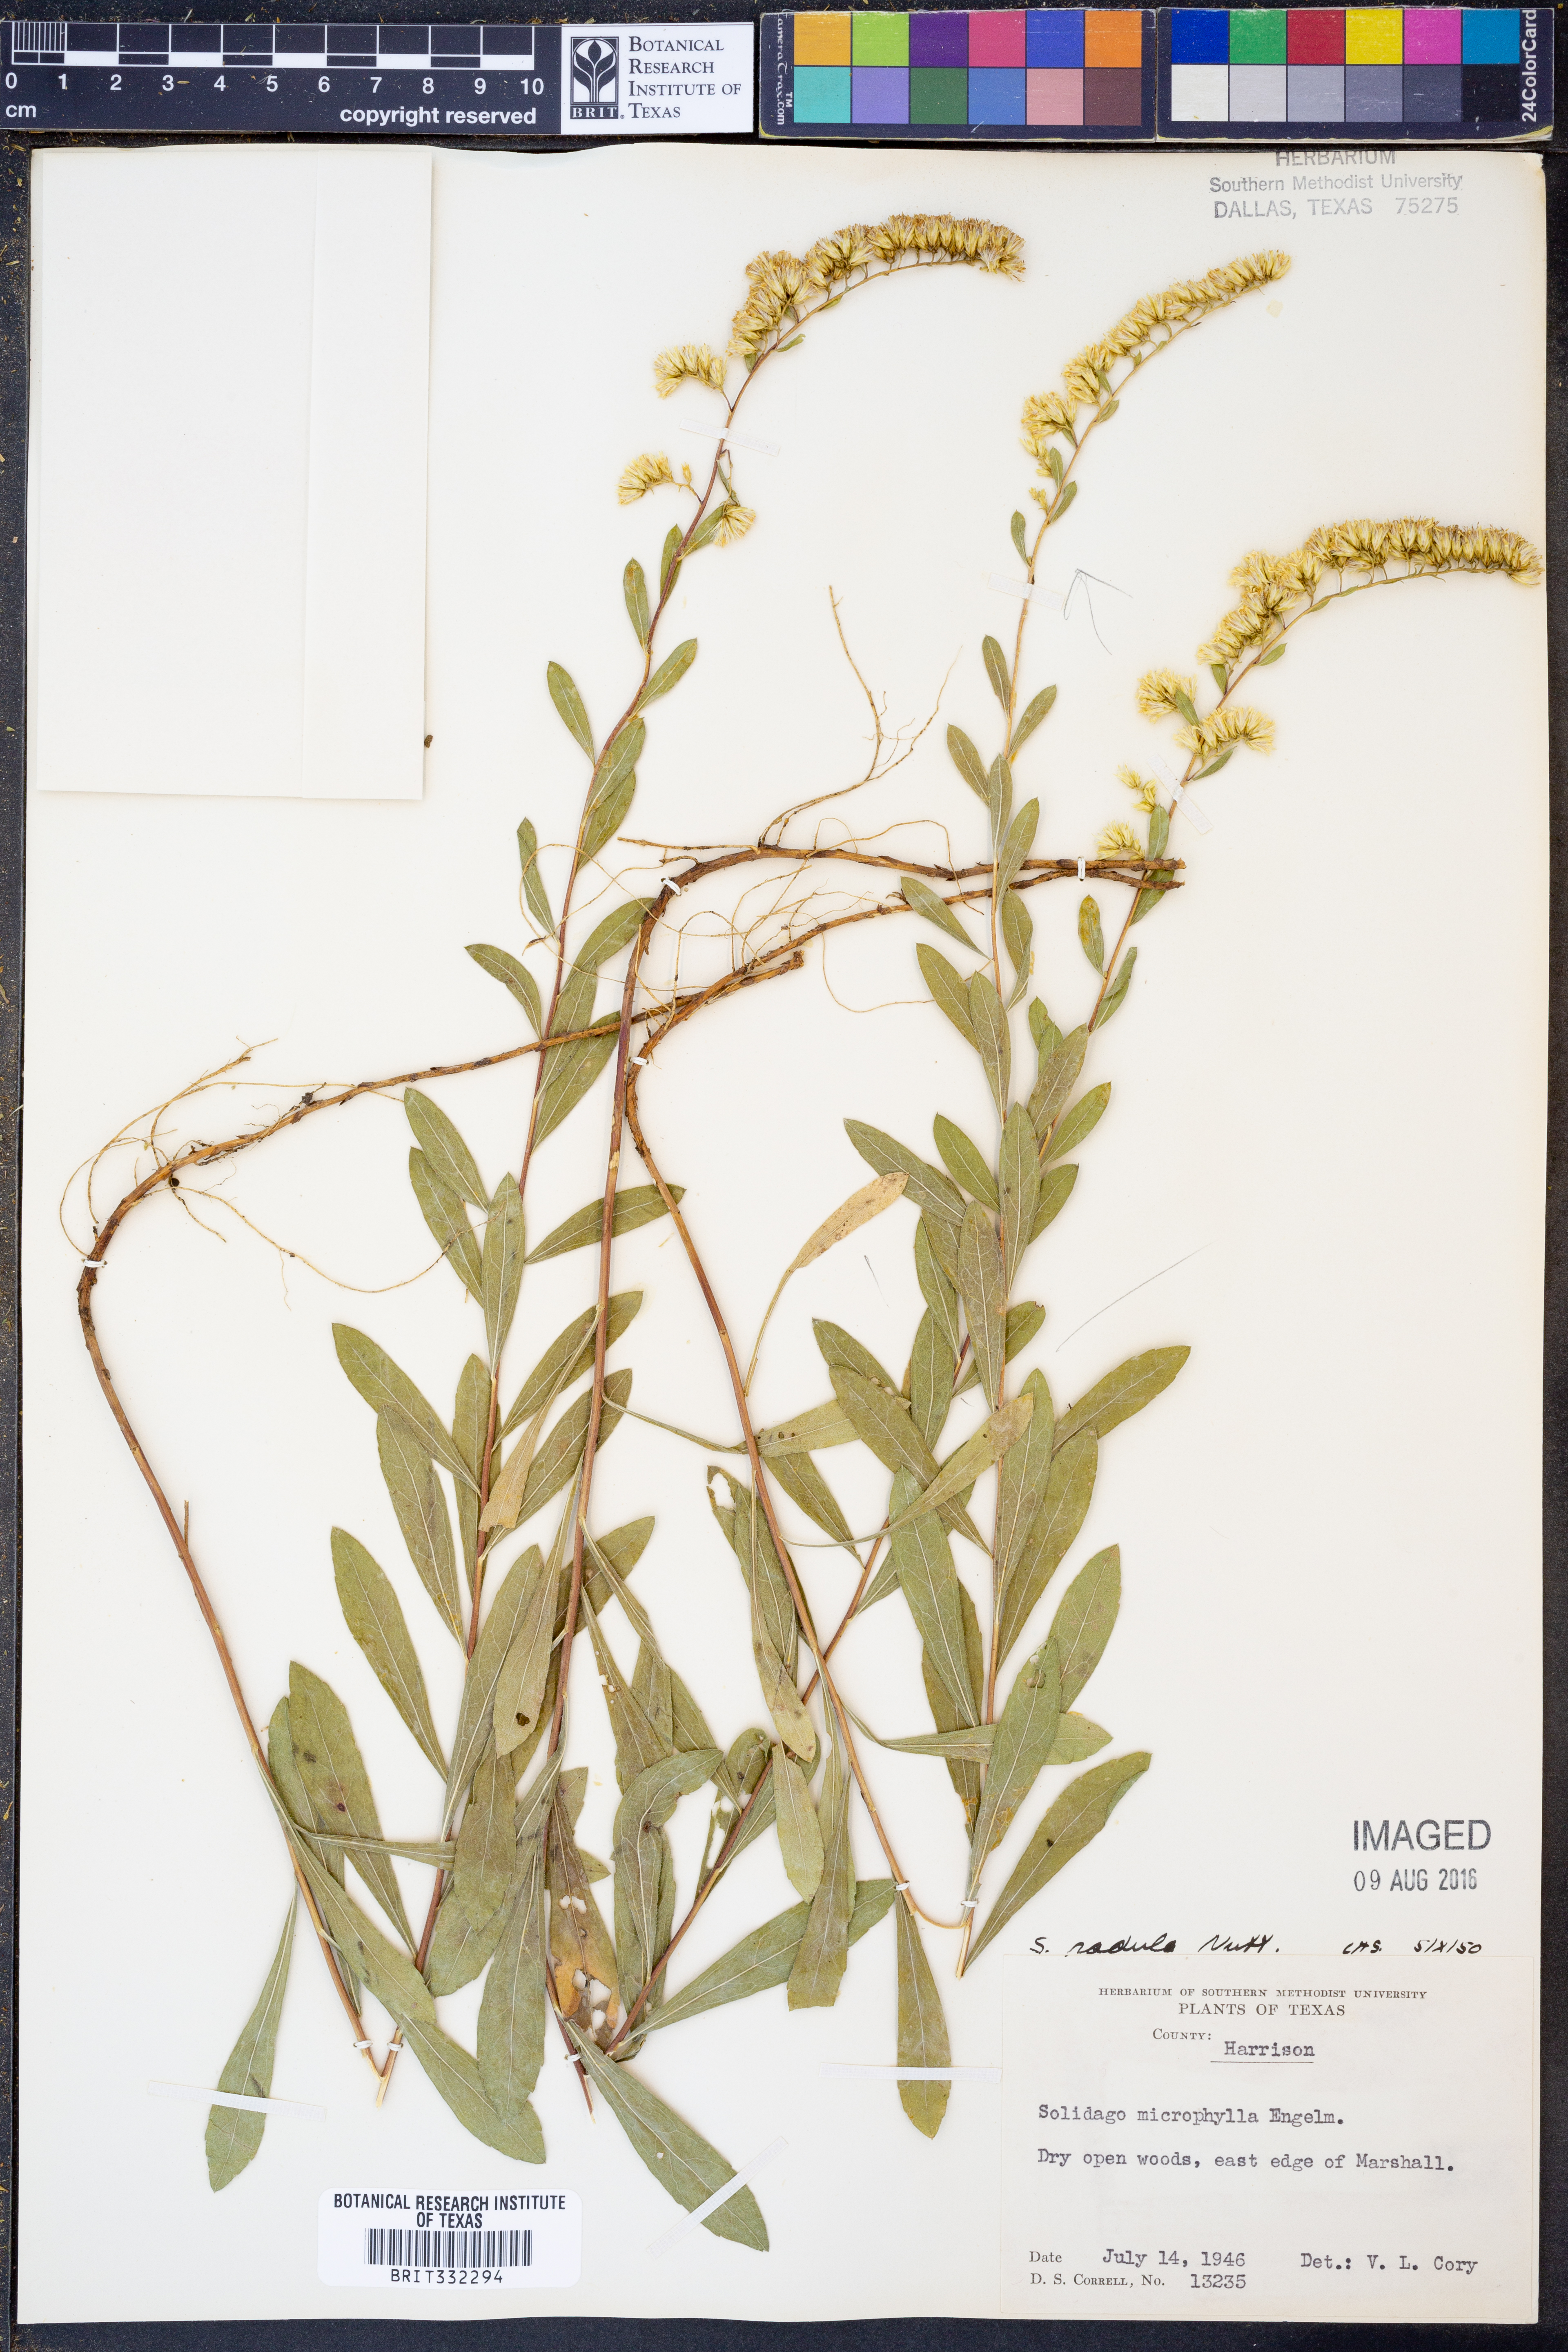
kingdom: Plantae
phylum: Tracheophyta
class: Magnoliopsida
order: Asterales
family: Asteraceae
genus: Solidago
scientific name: Solidago radula
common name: Western rough goldenrod
